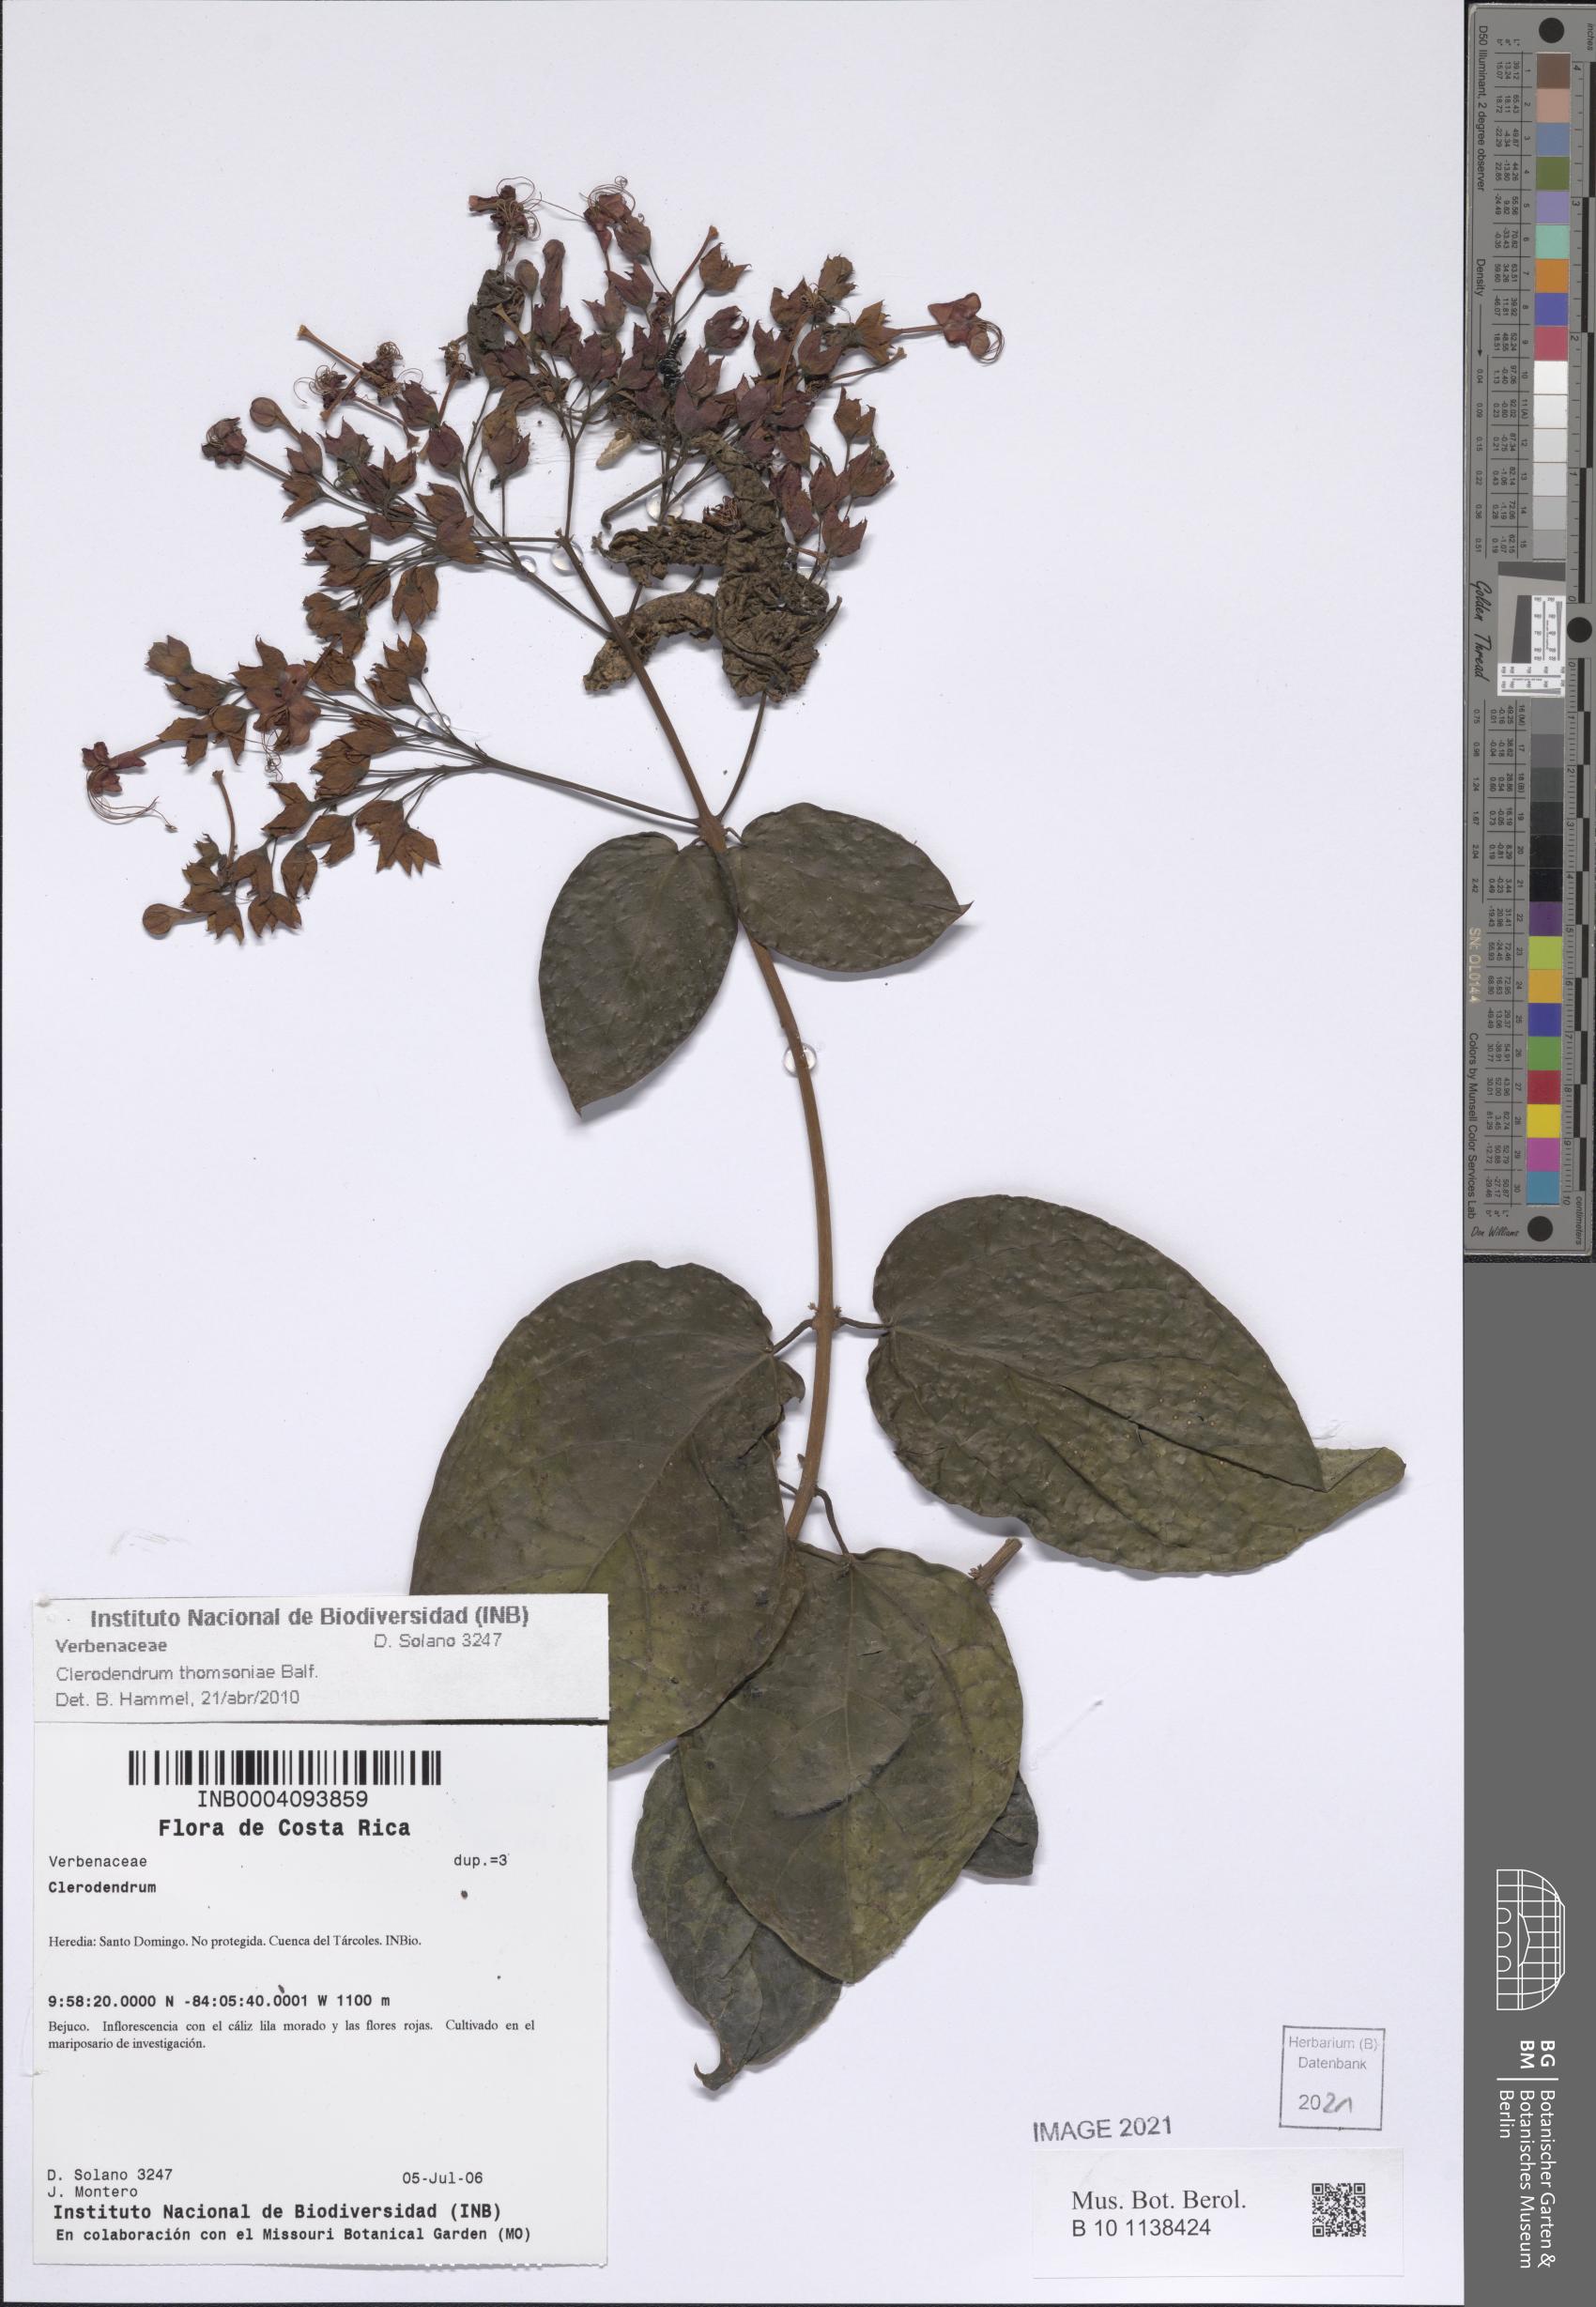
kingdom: Plantae
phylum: Tracheophyta
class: Magnoliopsida
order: Lamiales
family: Lamiaceae
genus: Clerodendrum
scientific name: Clerodendrum thomsoniae
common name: Bagflower
